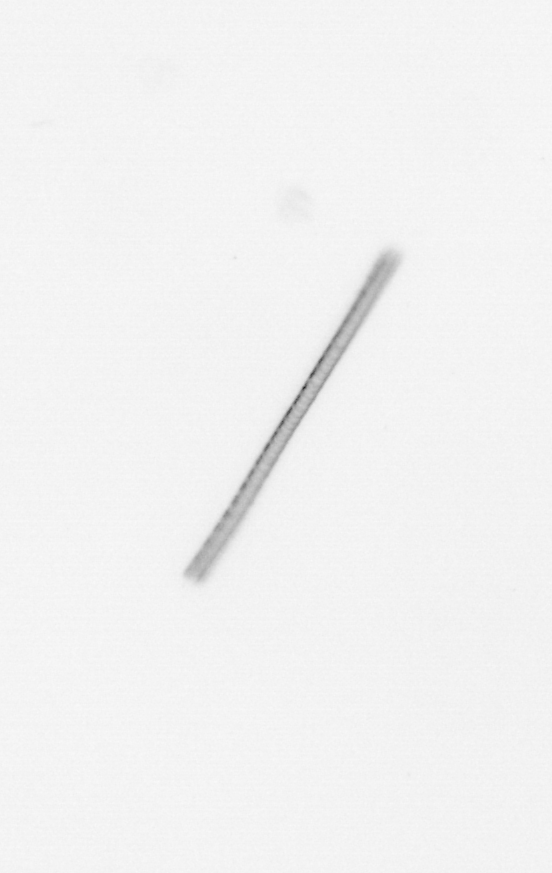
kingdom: Chromista
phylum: Ochrophyta
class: Bacillariophyceae
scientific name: Bacillariophyceae
